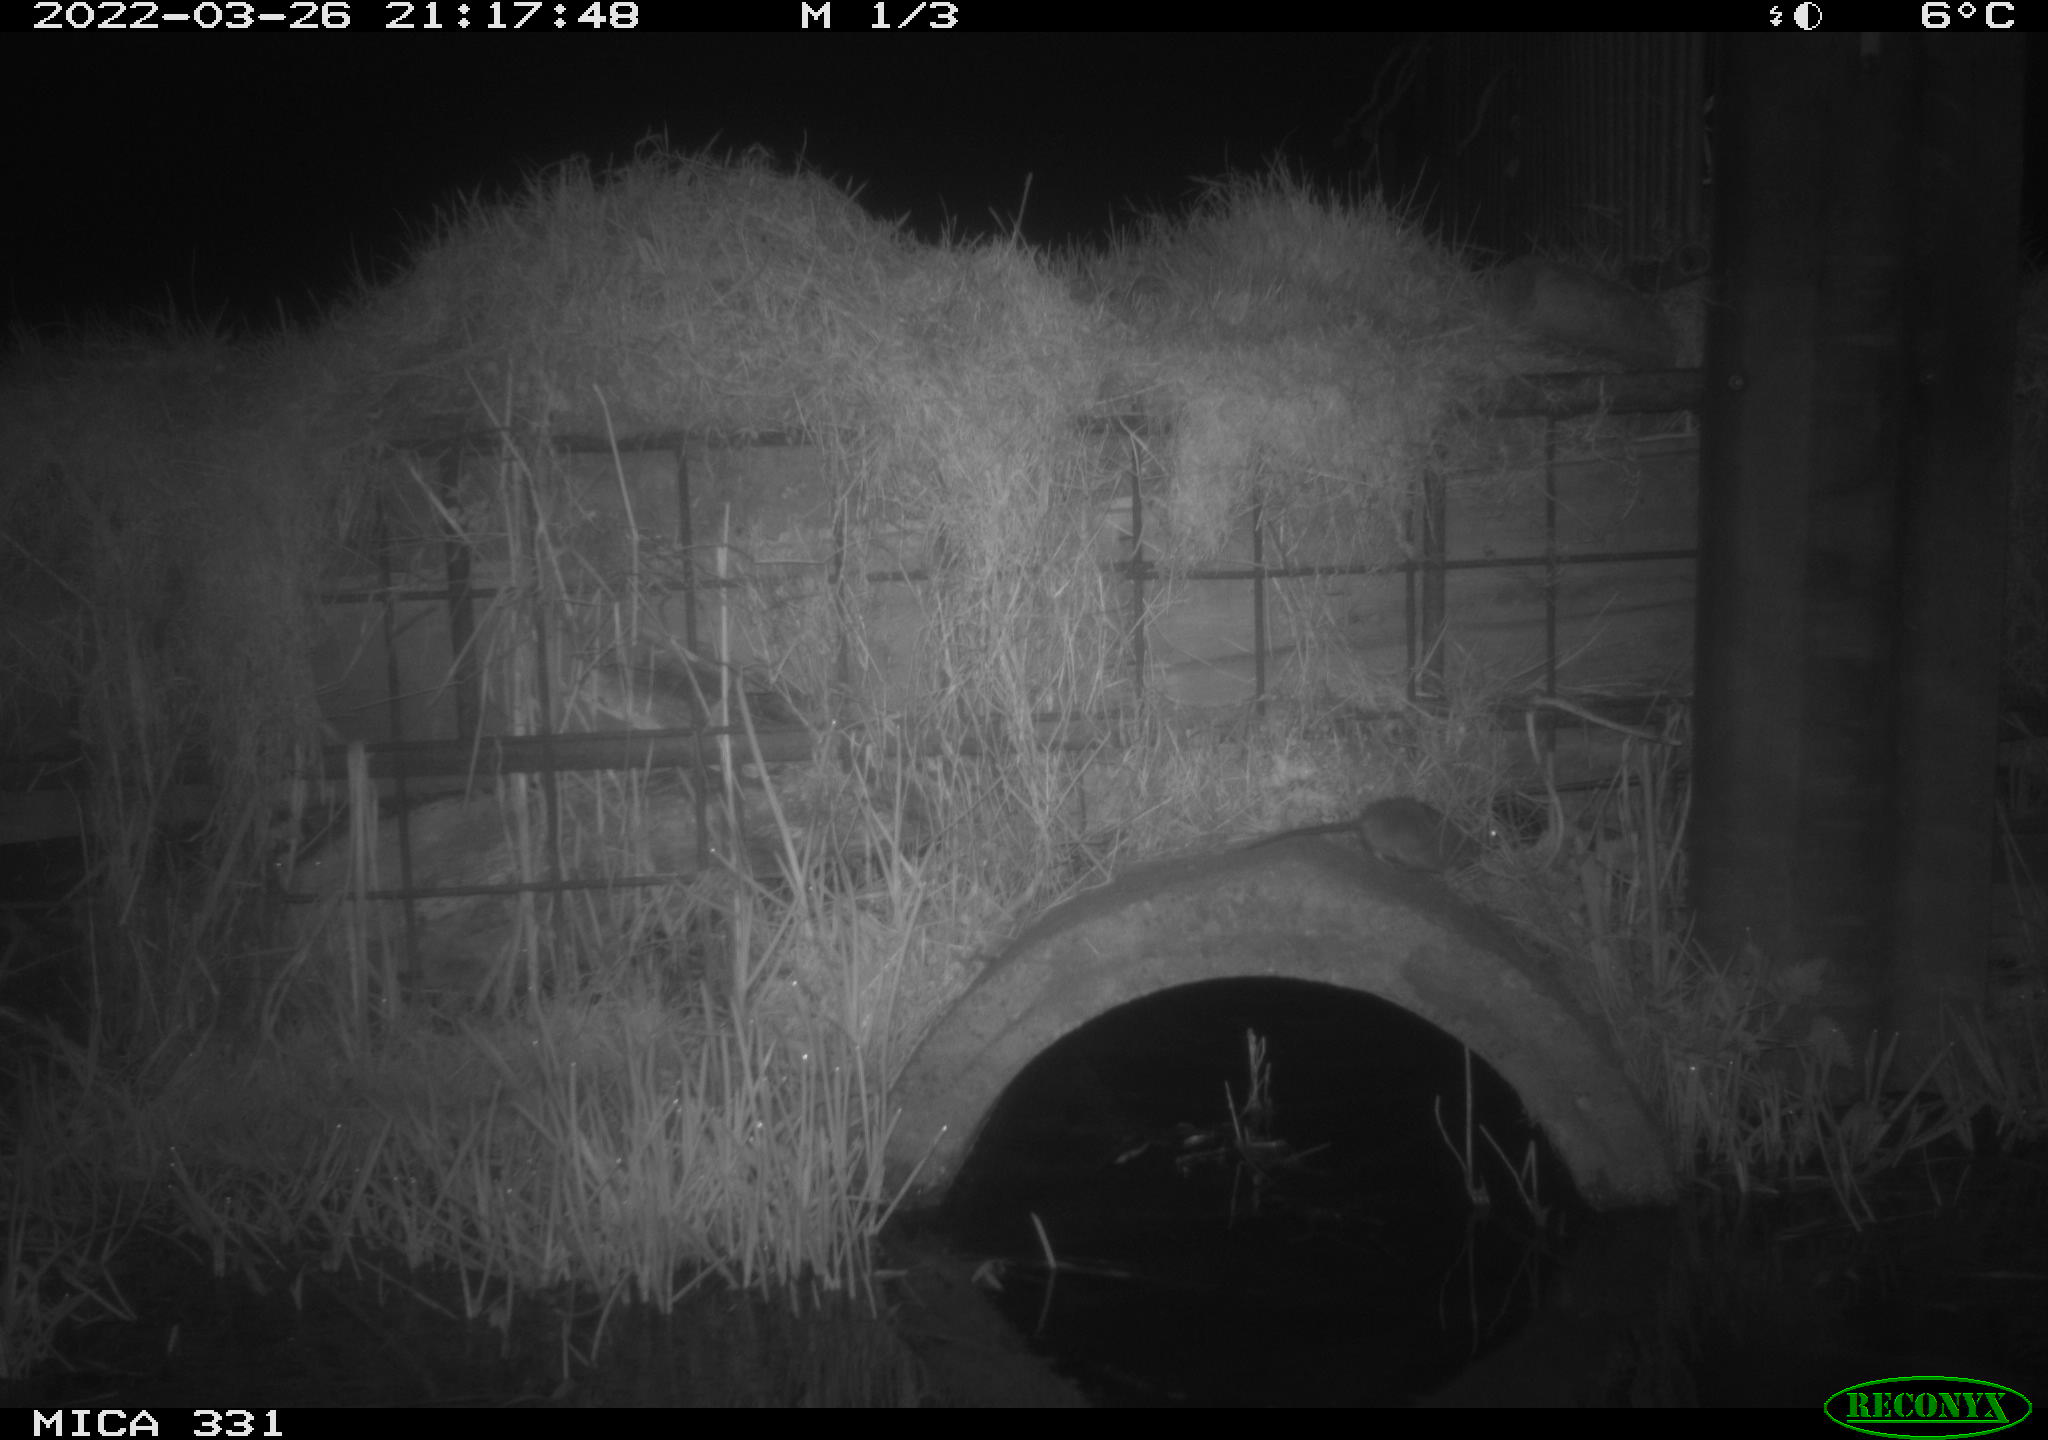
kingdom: Animalia
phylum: Chordata
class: Mammalia
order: Rodentia
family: Muridae
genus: Rattus
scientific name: Rattus norvegicus
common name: Brown rat
